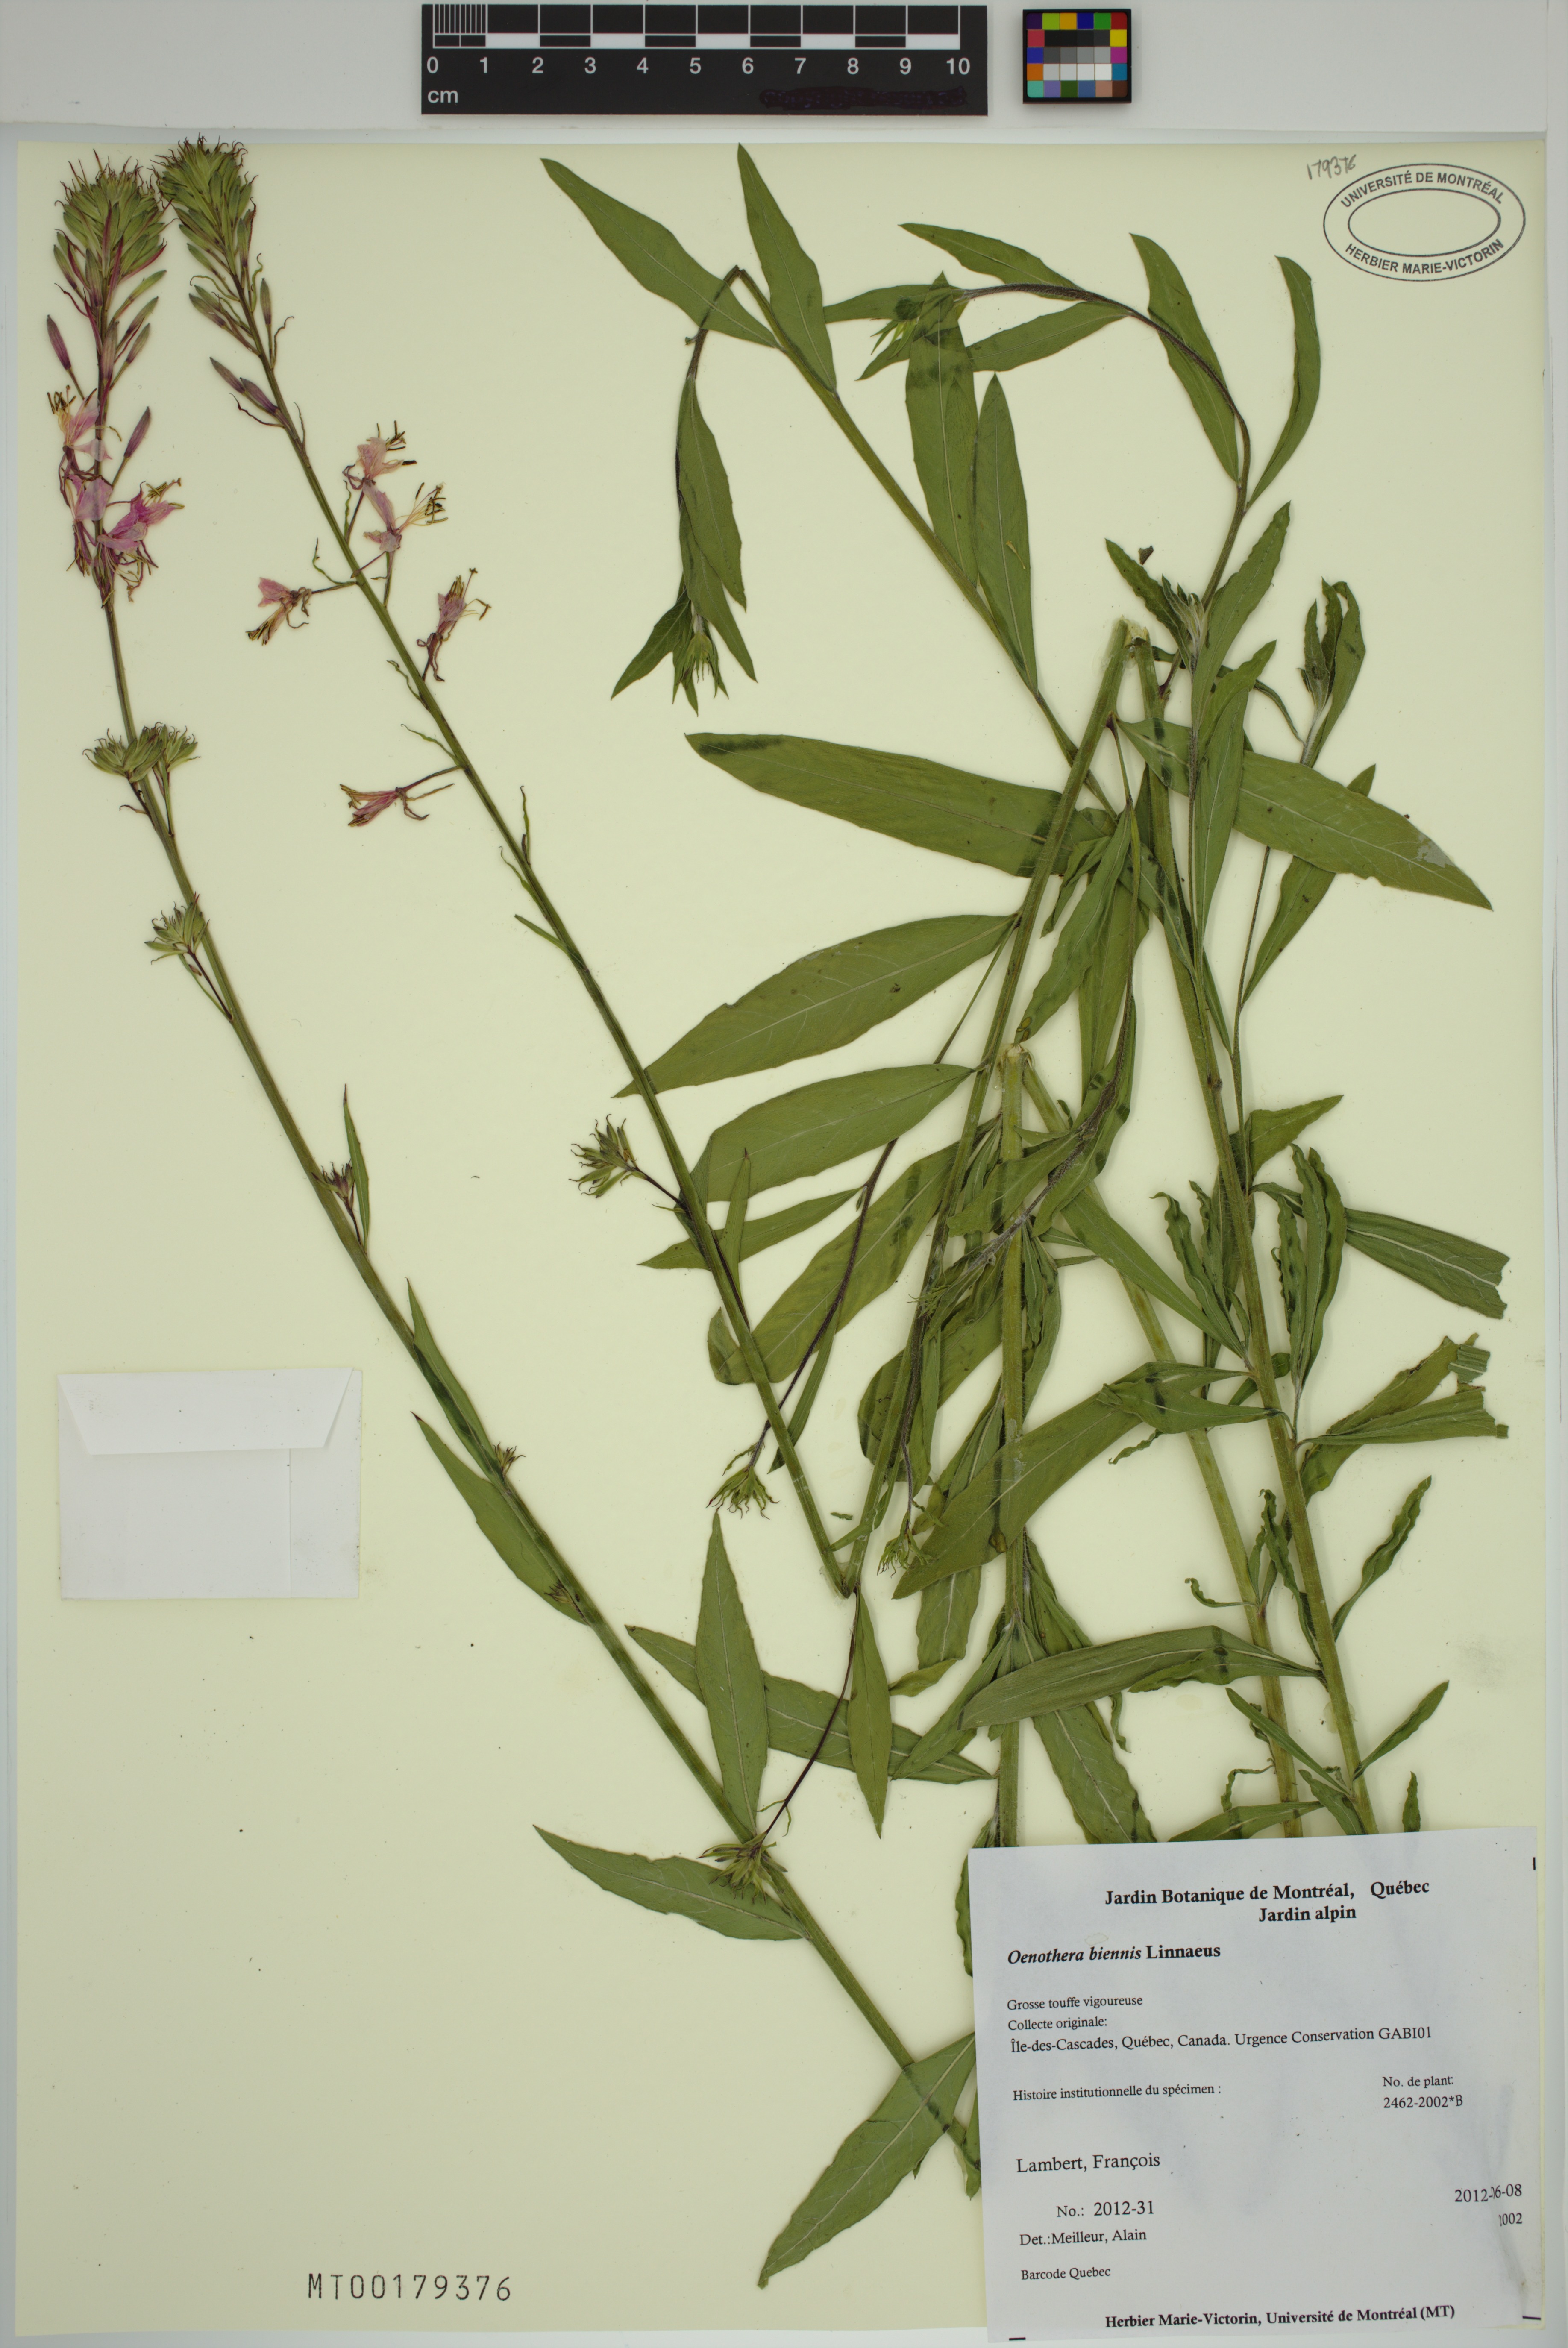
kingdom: Plantae
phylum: Tracheophyta
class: Magnoliopsida
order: Myrtales
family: Onagraceae
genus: Oenothera
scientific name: Oenothera biennis
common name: Common evening-primrose
